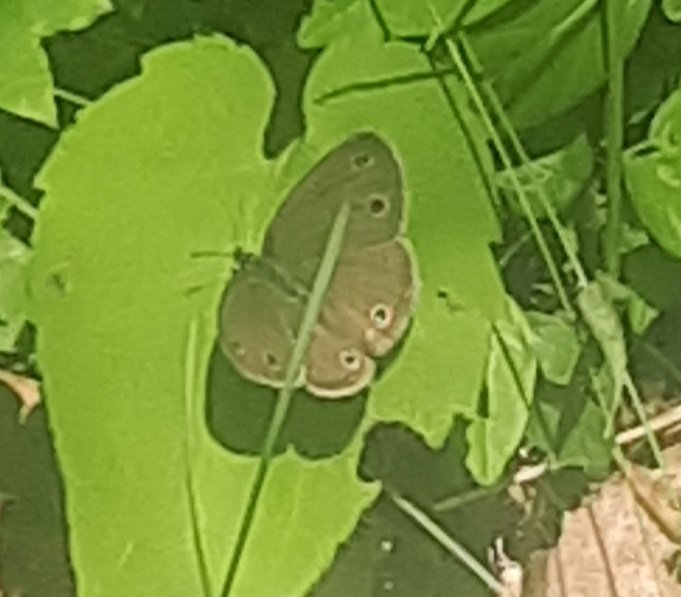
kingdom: Animalia
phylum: Arthropoda
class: Insecta
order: Lepidoptera
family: Nymphalidae
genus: Euptychia
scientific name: Euptychia cymela
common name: Little Wood Satyr
